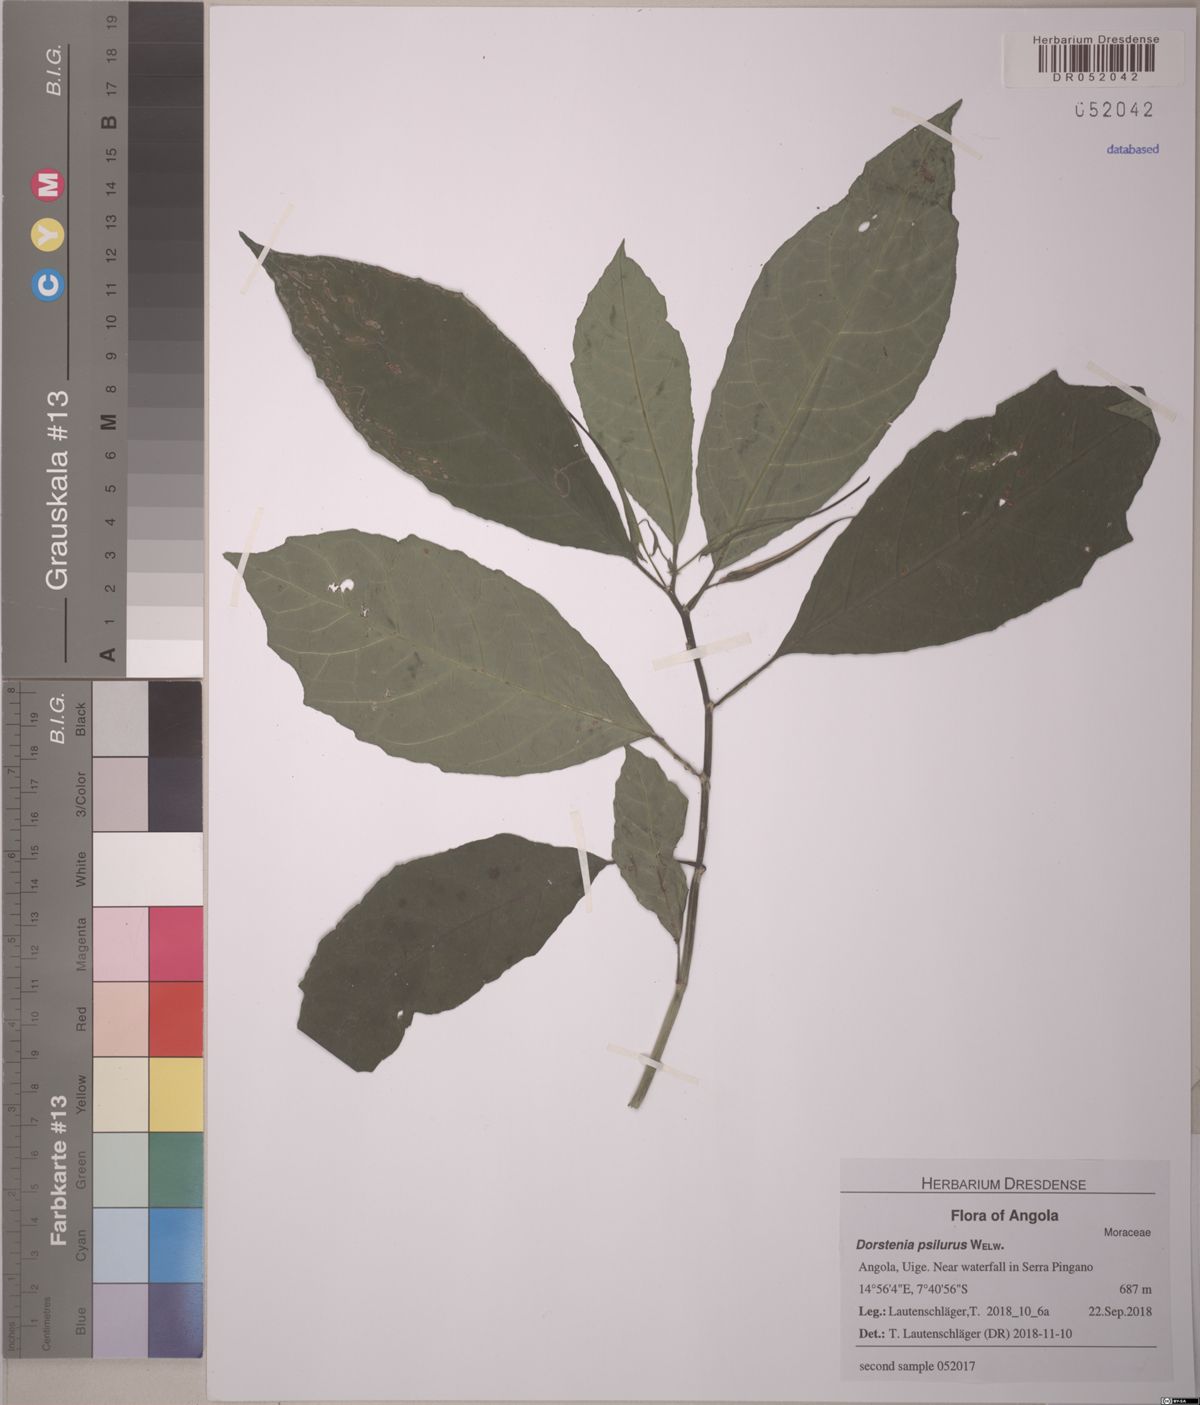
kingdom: Plantae
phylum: Tracheophyta
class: Magnoliopsida
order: Rosales
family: Moraceae
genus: Dorstenia
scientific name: Dorstenia psilurus
